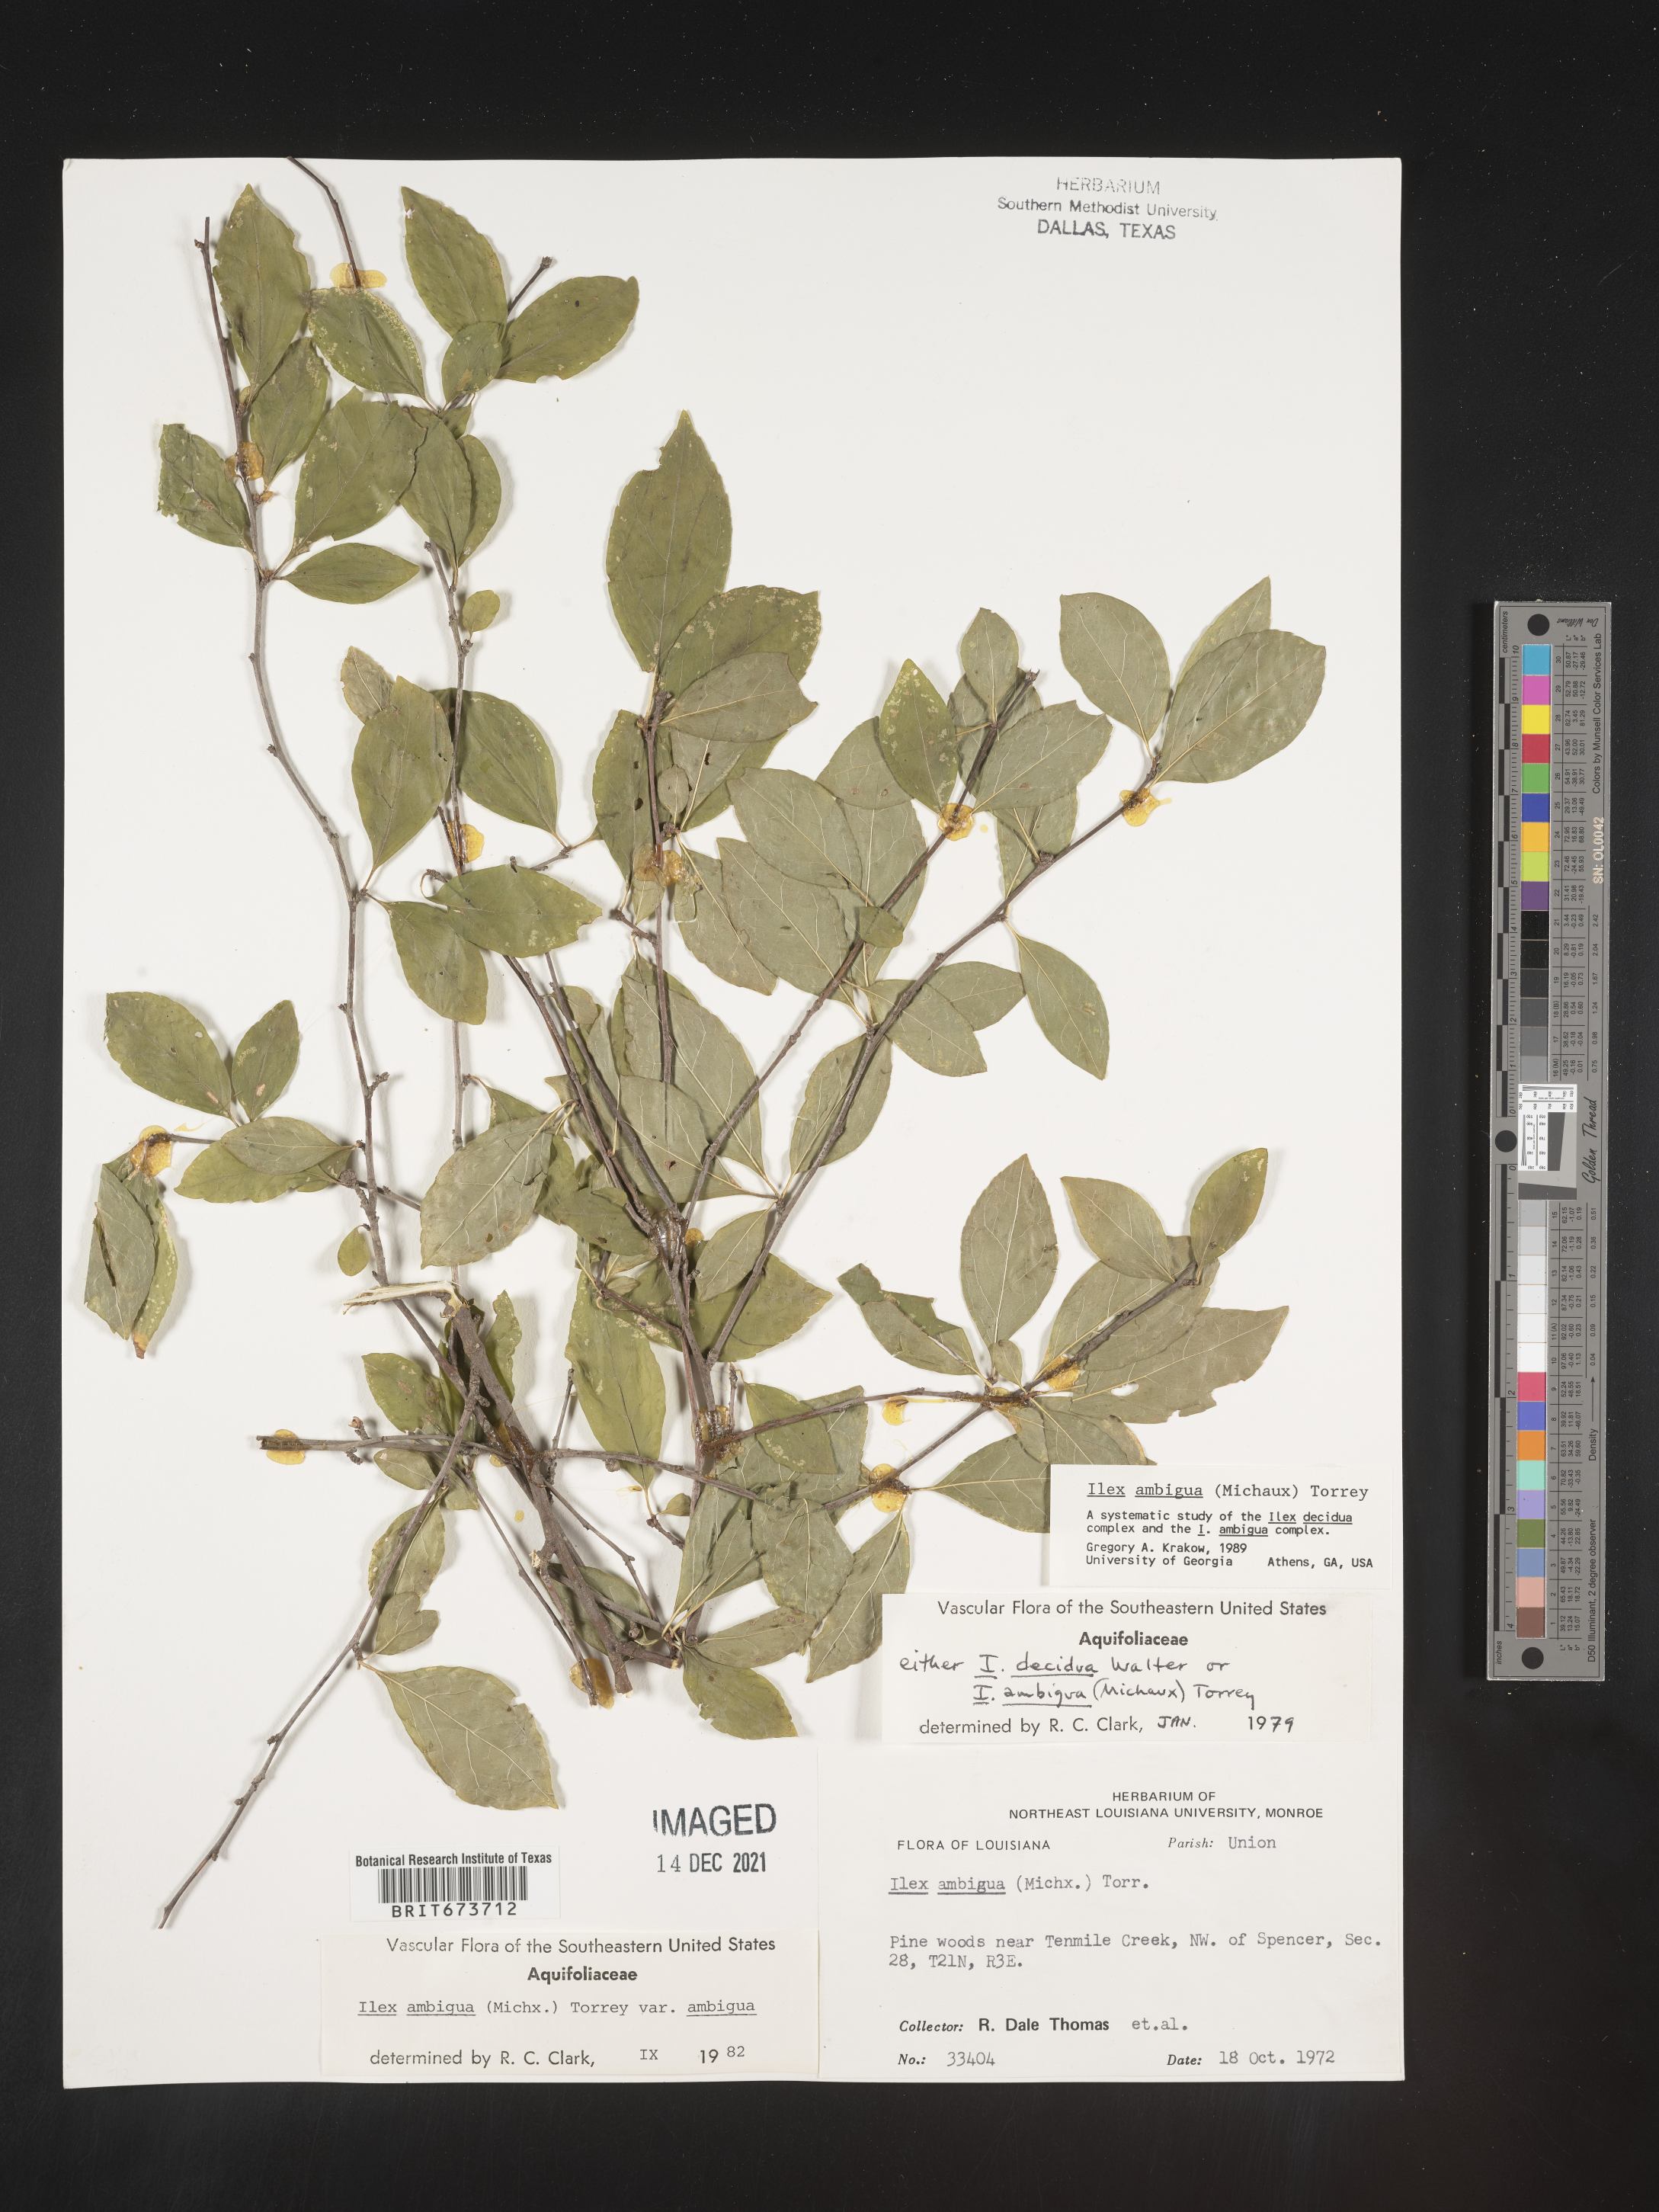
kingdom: Plantae
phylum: Tracheophyta
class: Magnoliopsida
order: Aquifoliales
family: Aquifoliaceae
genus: Ilex
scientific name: Ilex ambigua
